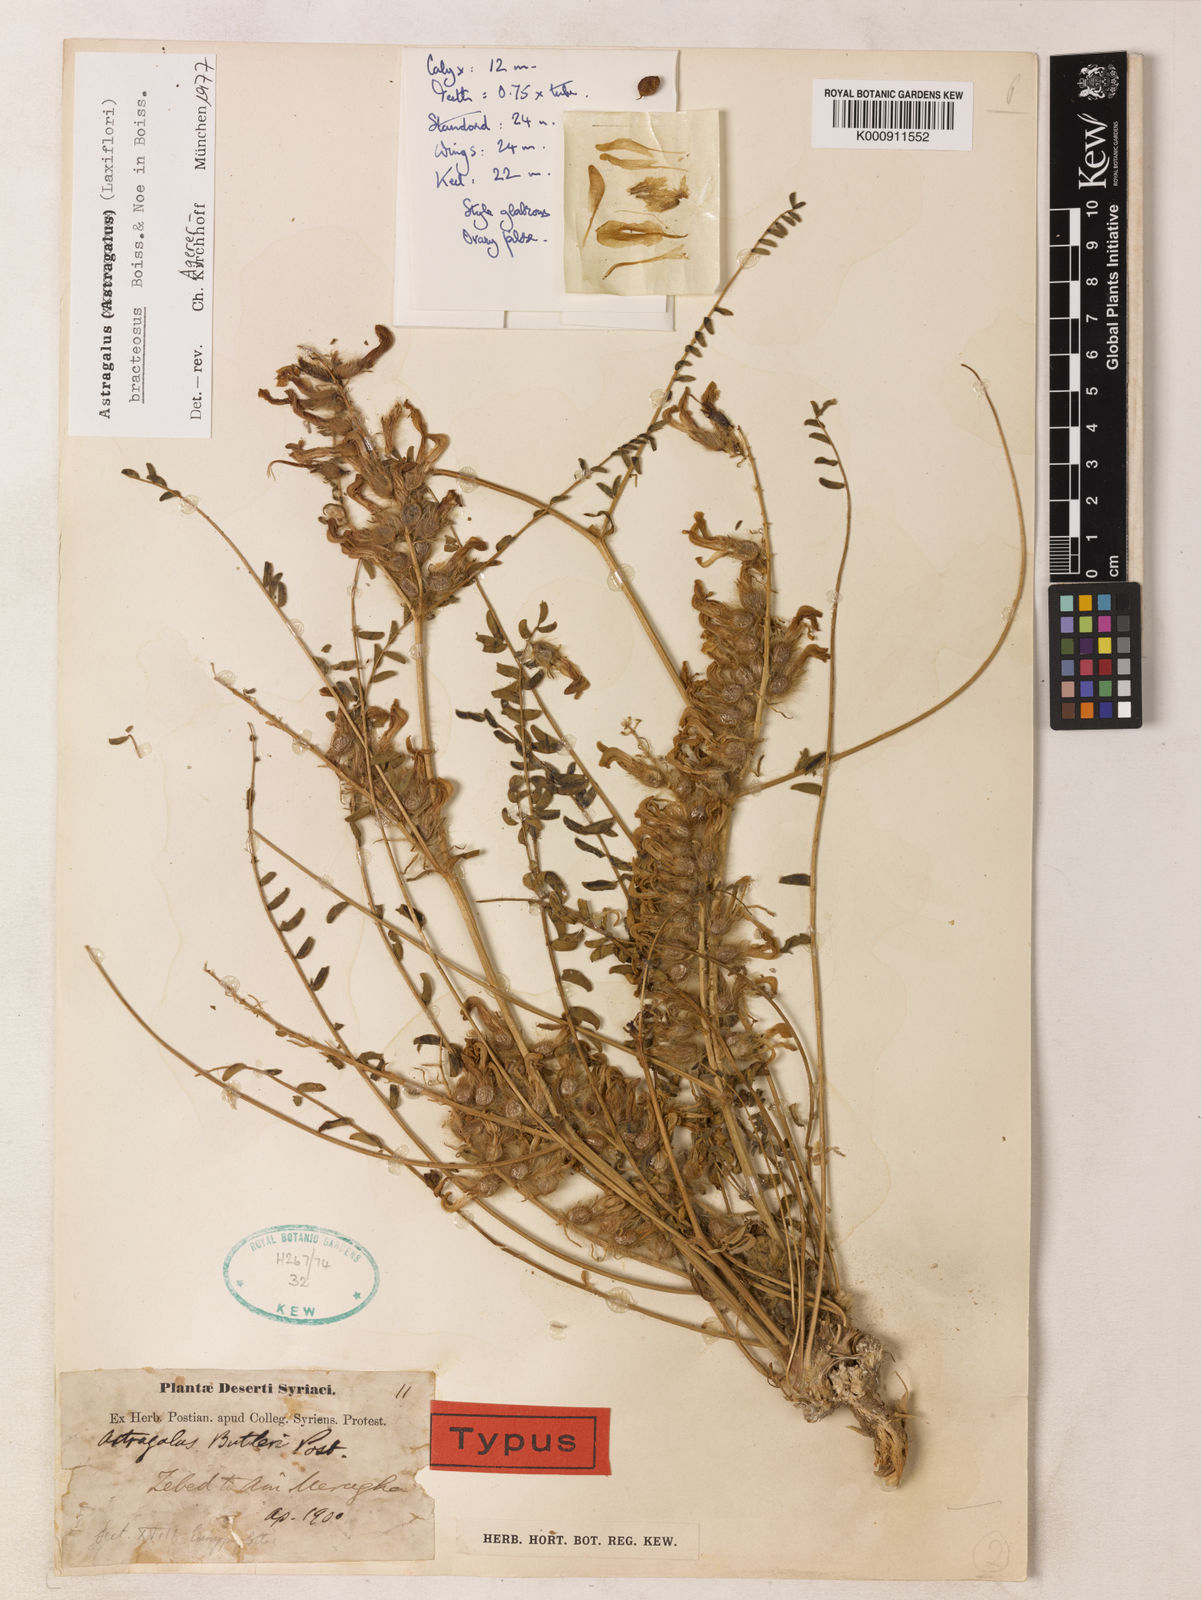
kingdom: Plantae
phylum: Tracheophyta
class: Magnoliopsida
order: Fabales
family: Fabaceae
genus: Astragalus
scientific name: Astragalus
